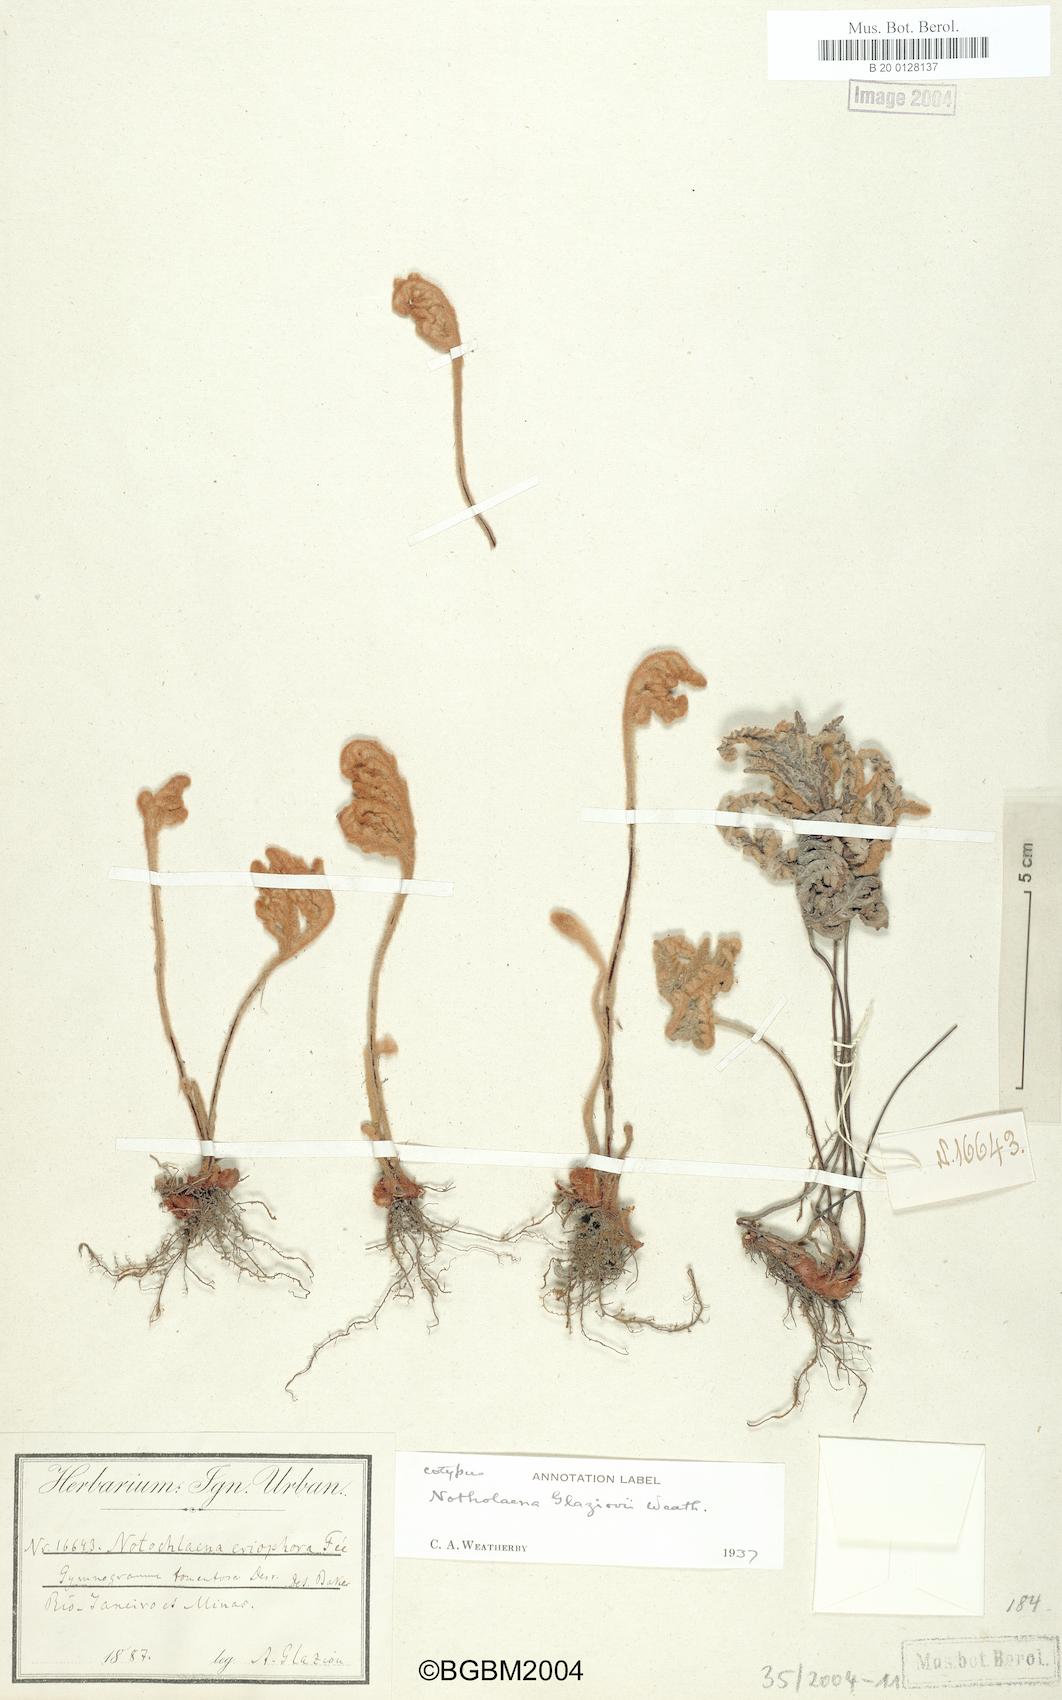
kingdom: Plantae
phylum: Tracheophyta
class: Polypodiopsida
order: Polypodiales
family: Pteridaceae
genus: Mineirella
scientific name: Mineirella eriophora
